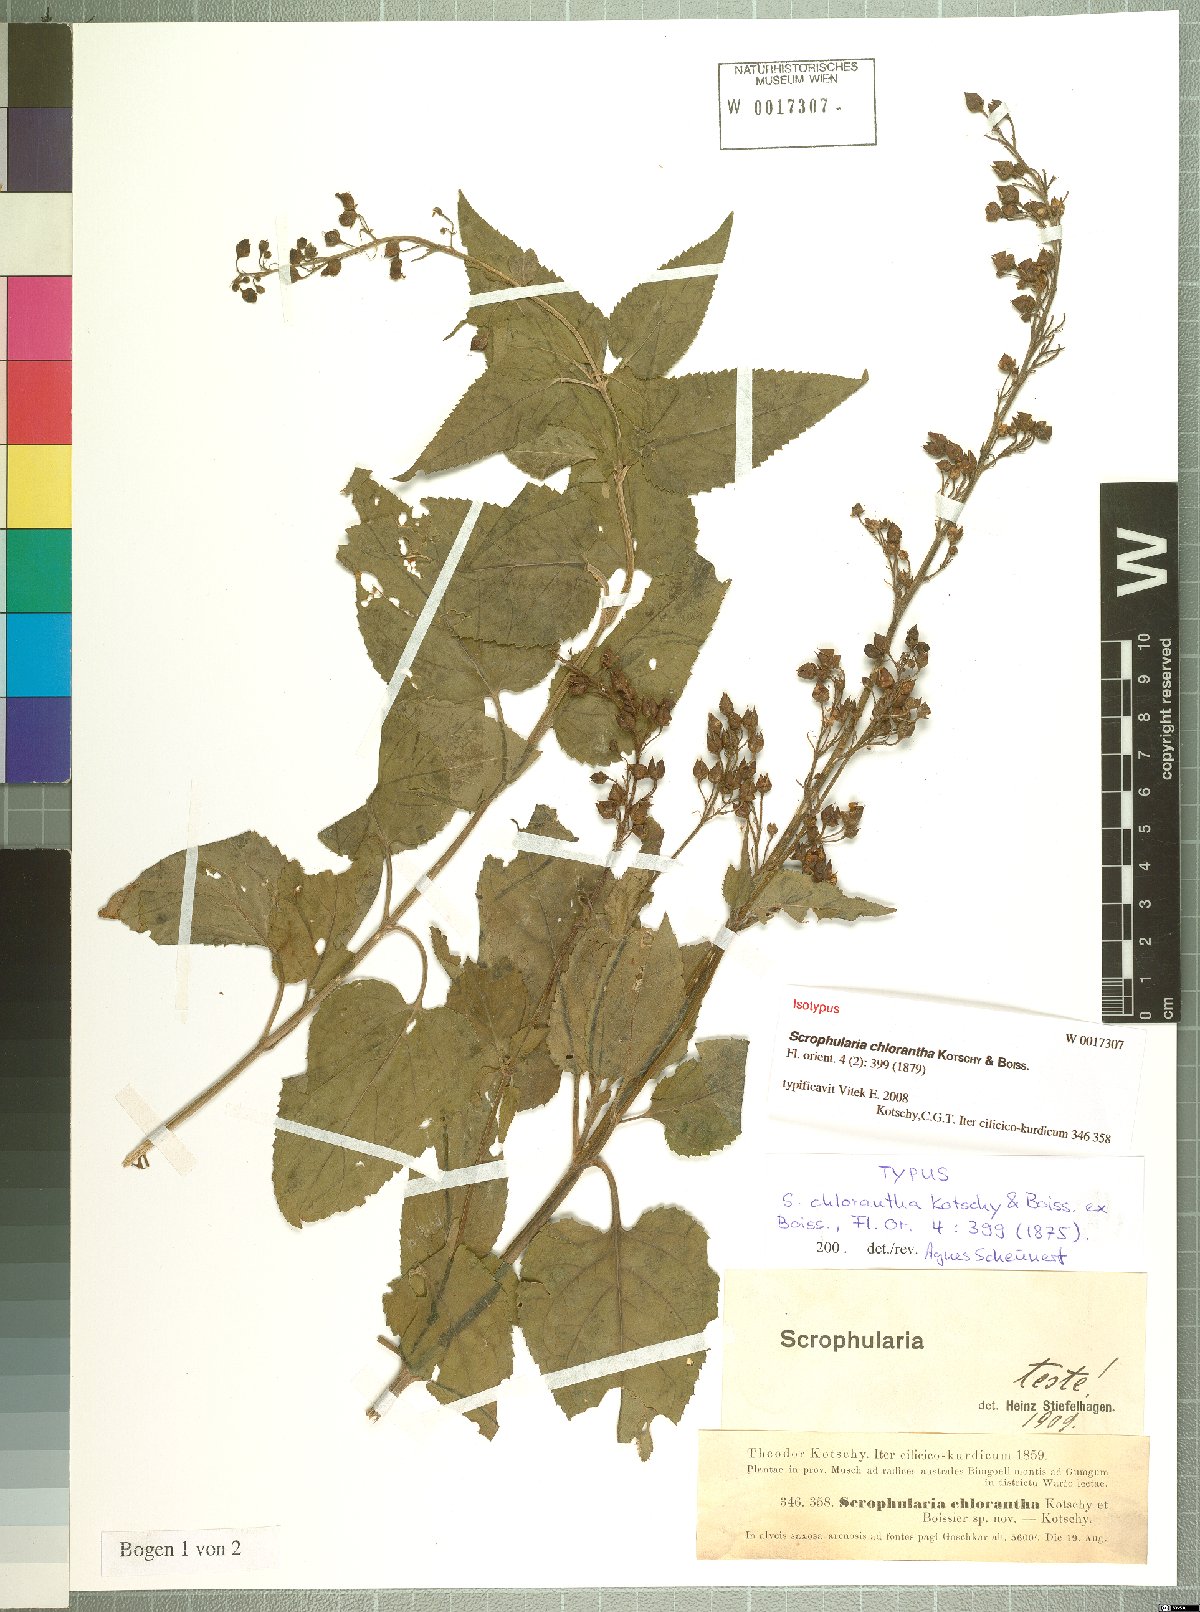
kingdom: Plantae
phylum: Tracheophyta
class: Magnoliopsida
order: Lamiales
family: Scrophulariaceae
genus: Scrophularia
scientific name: Scrophularia chlorantha
